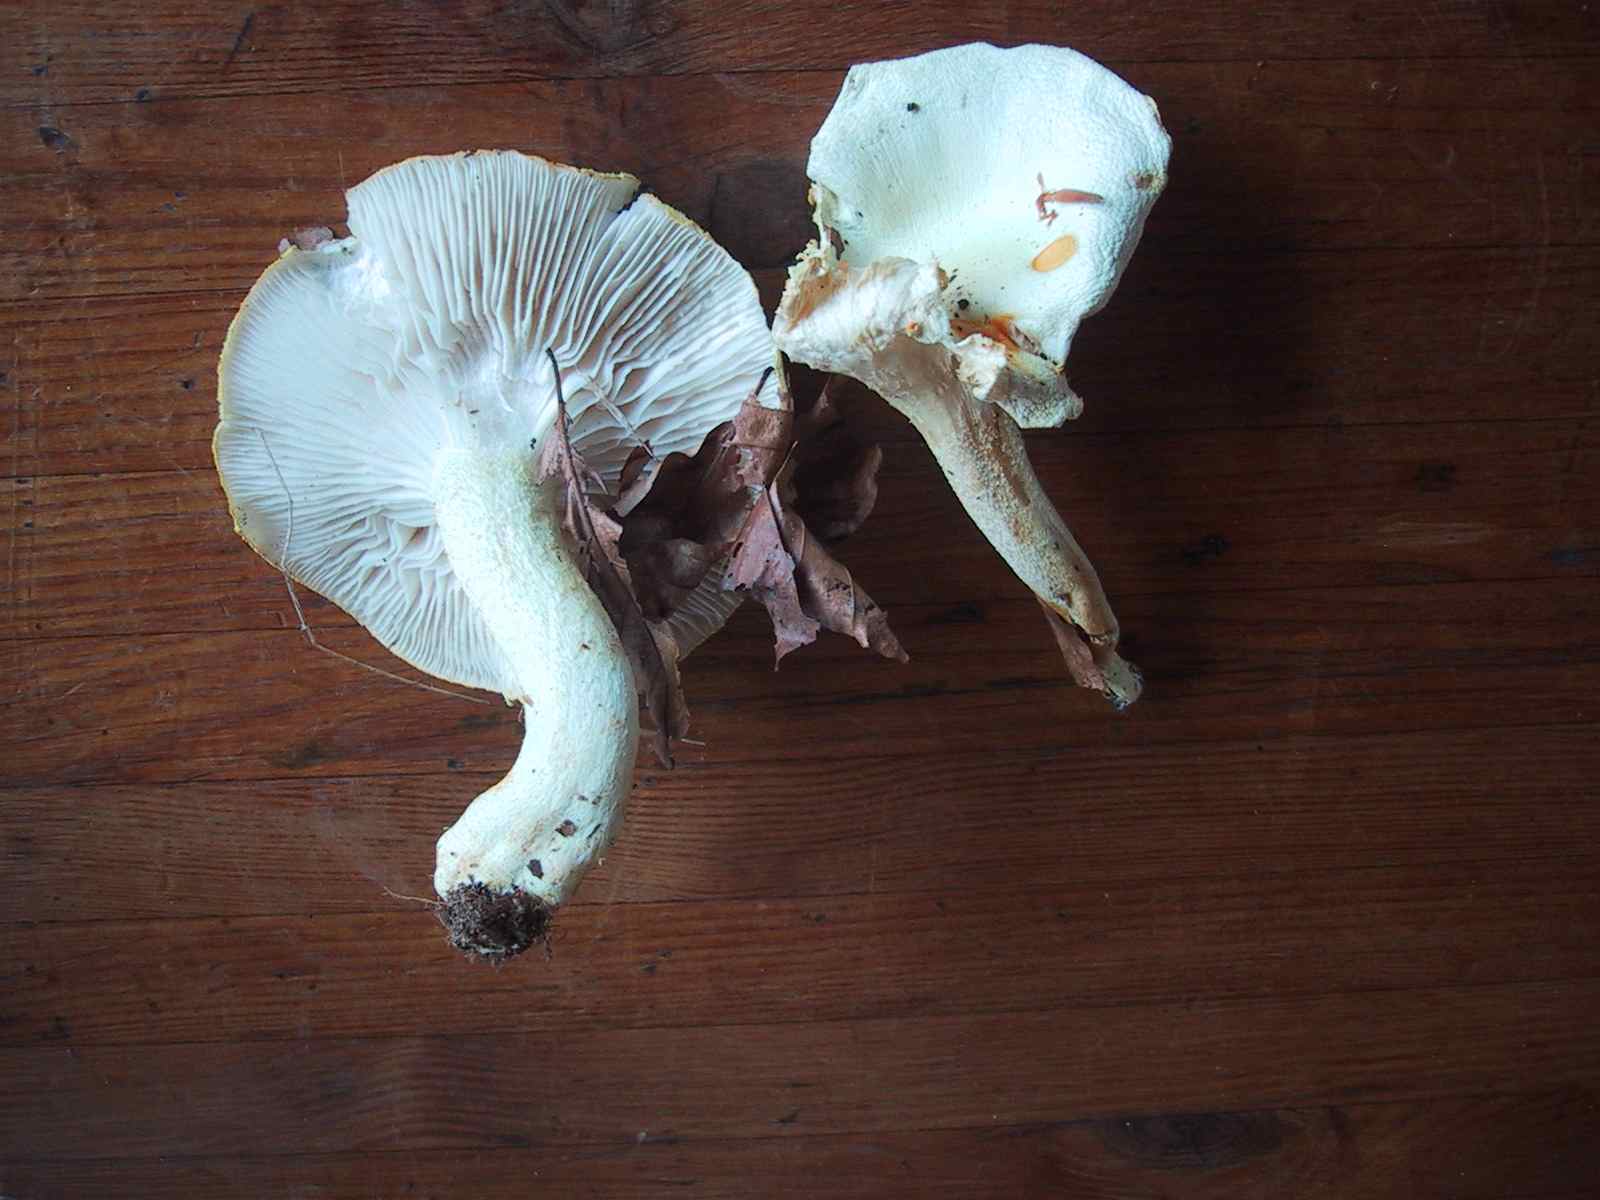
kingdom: Fungi
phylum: Basidiomycota
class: Agaricomycetes
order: Agaricales
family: Hygrophoraceae
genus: Hygrophorus
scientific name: Hygrophorus chrysodon
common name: gulfnugget sneglehat
